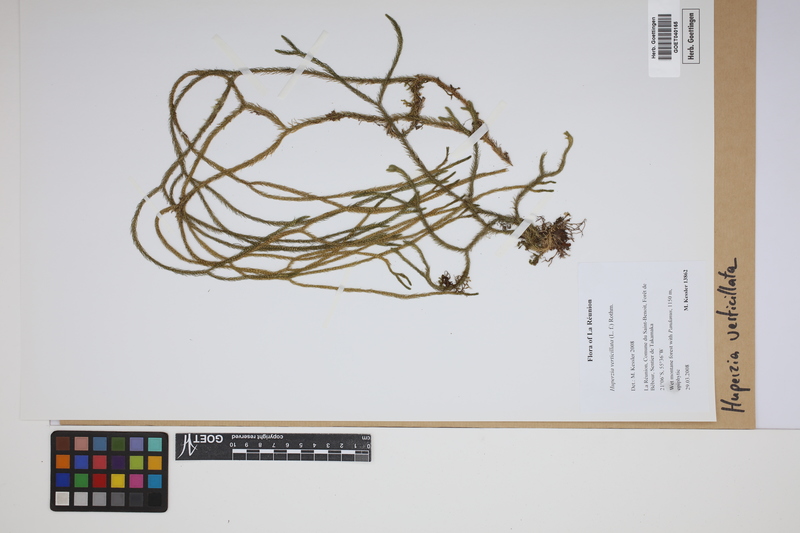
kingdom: Plantae
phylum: Tracheophyta
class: Lycopodiopsida
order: Lycopodiales
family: Lycopodiaceae
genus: Phlegmariurus
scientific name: Phlegmariurus verticillatus
